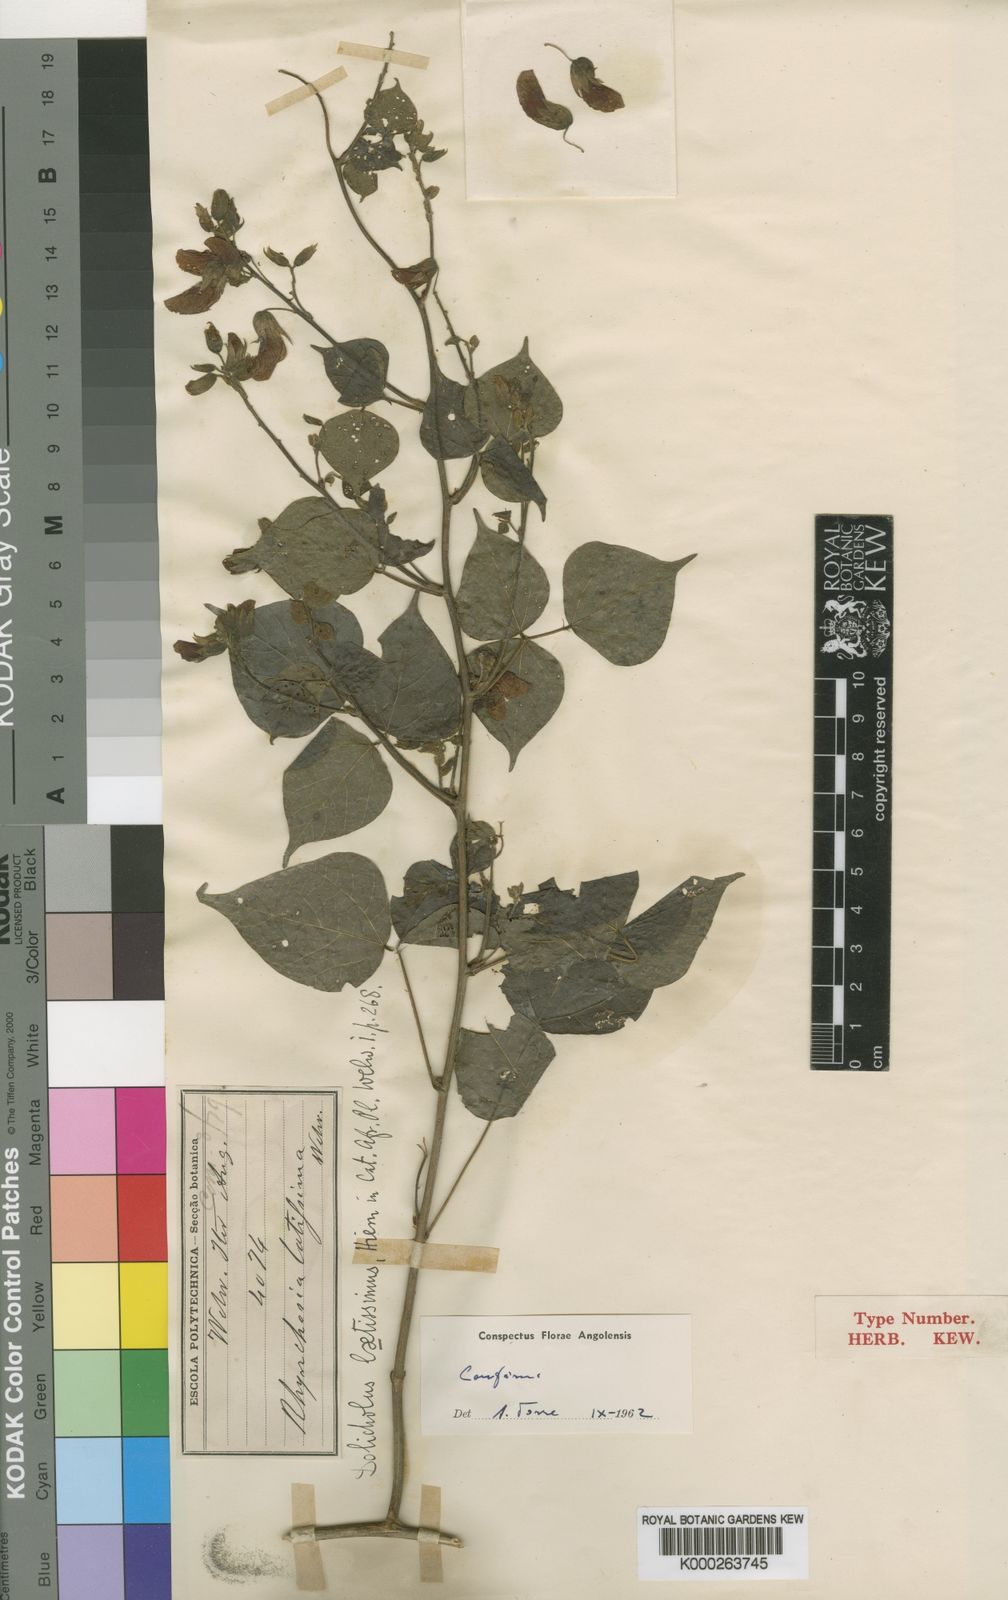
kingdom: Plantae
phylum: Tracheophyta
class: Magnoliopsida
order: Fabales
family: Fabaceae
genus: Rhynchosia
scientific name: Rhynchosia
